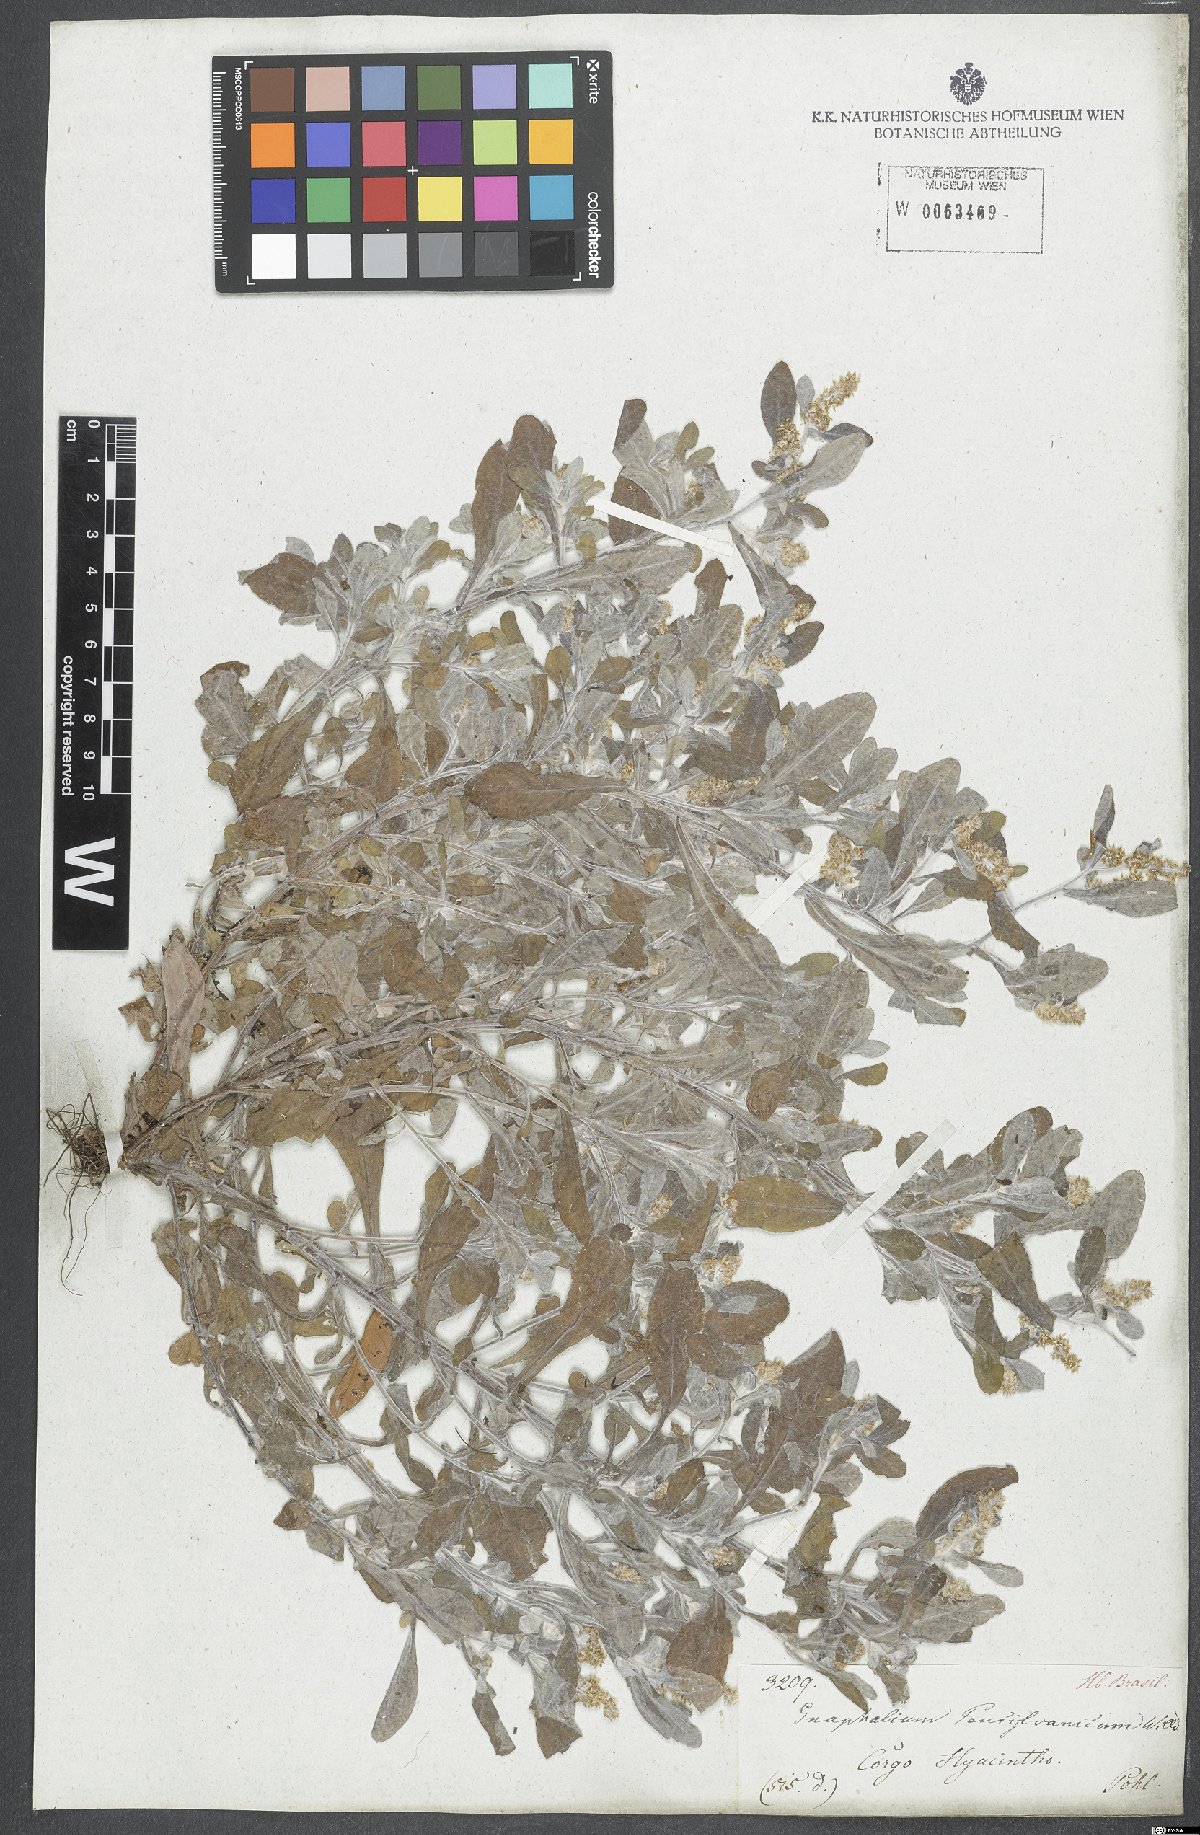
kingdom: Plantae
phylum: Tracheophyta
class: Magnoliopsida
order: Asterales
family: Asteraceae
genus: Gamochaeta
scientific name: Gamochaeta pensylvanica
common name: Pennsylvania everlasting
